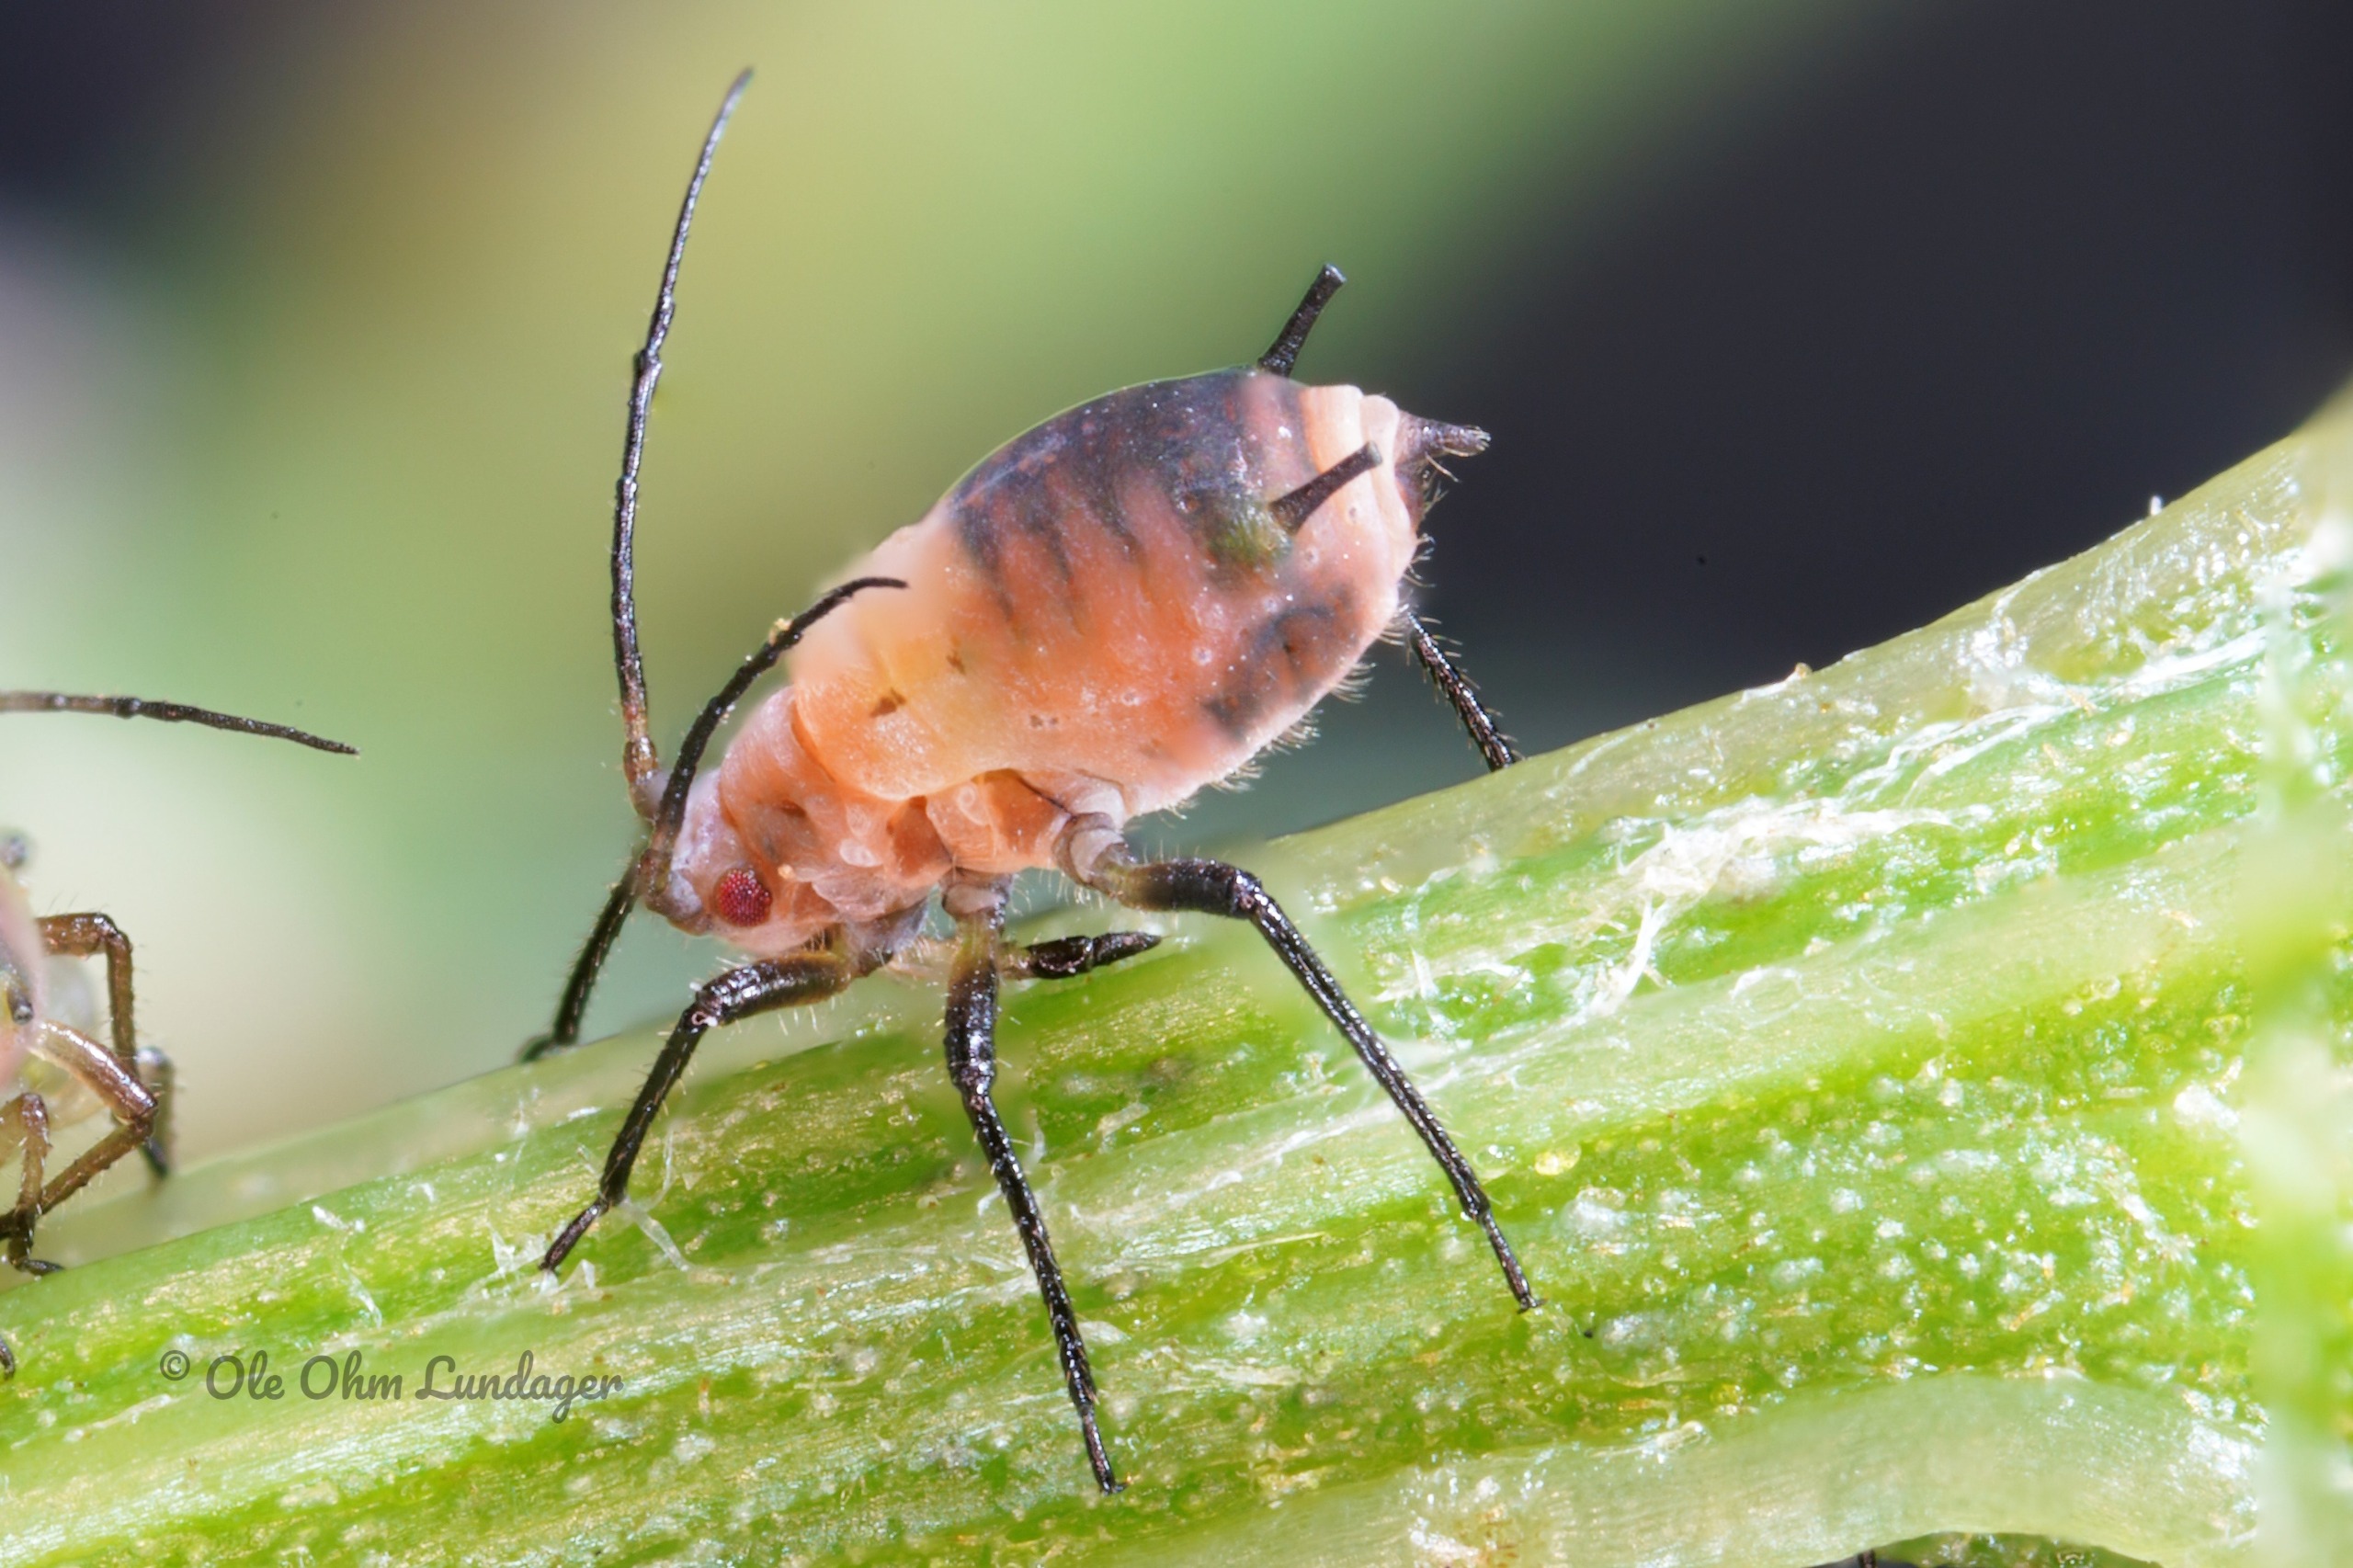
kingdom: Animalia
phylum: Arthropoda
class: Insecta
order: Hemiptera
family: Aphididae
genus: Metopeurum
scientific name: Metopeurum fuscoviride
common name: Mørk rejnfanbladlus
